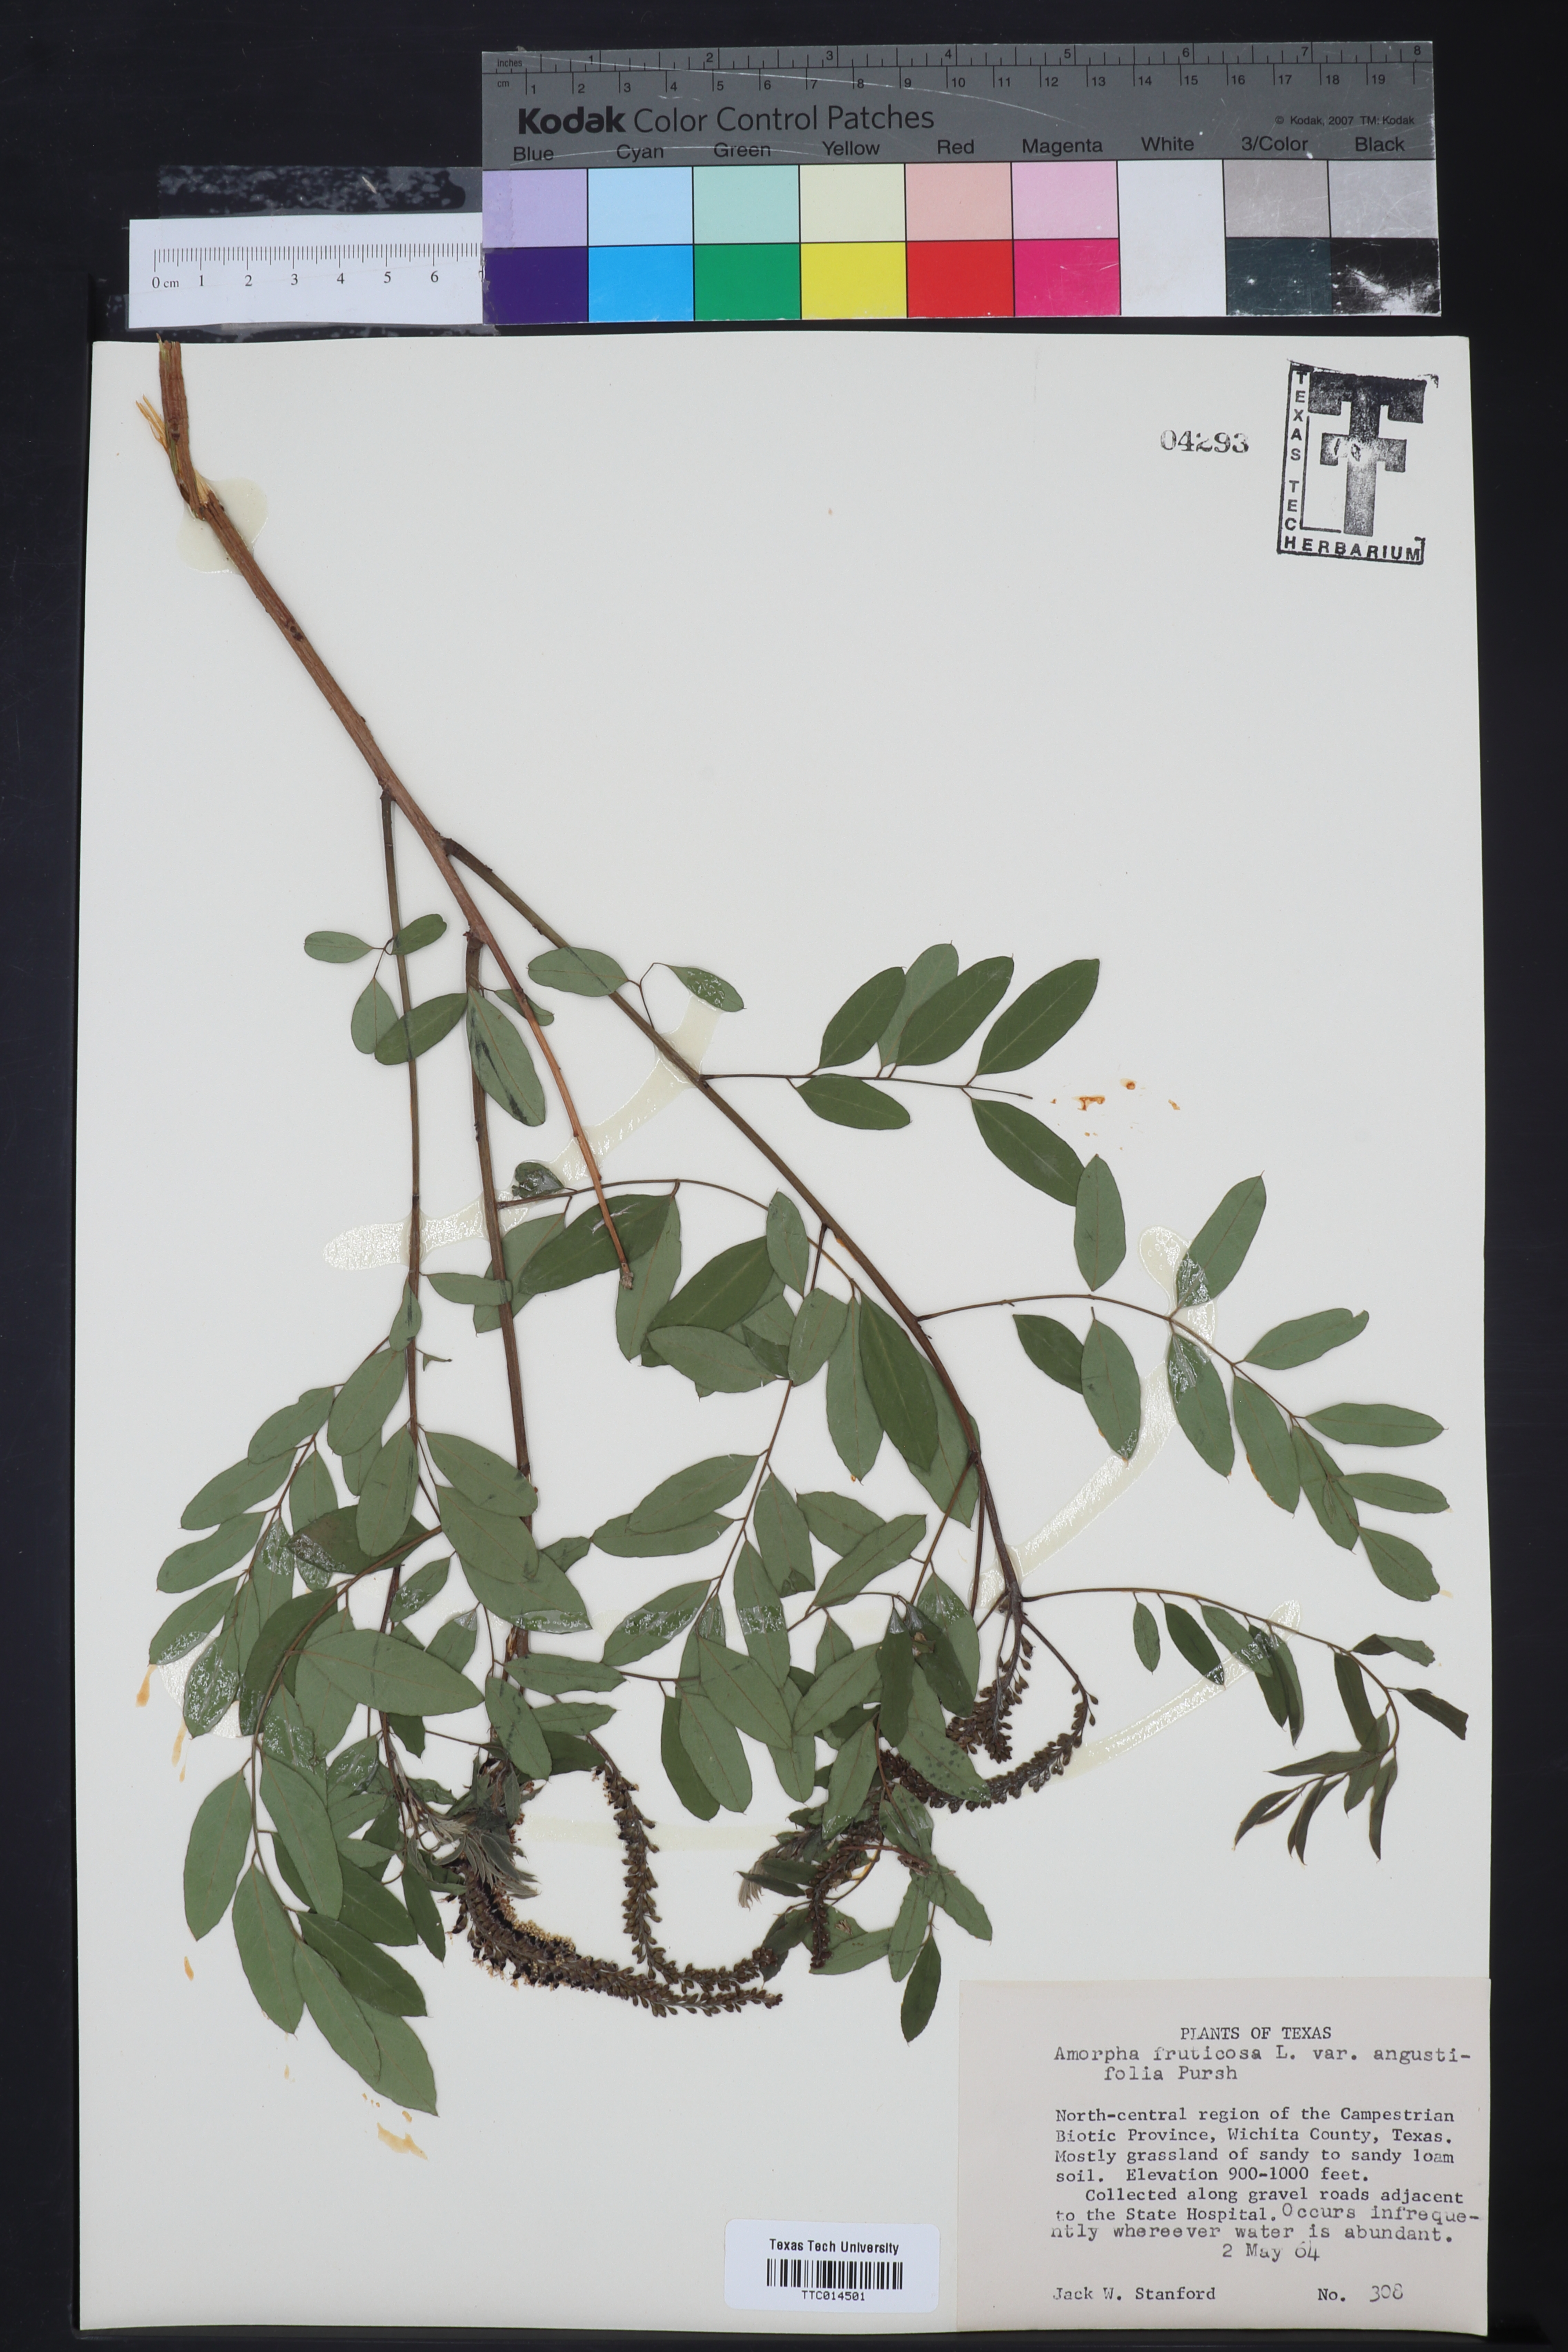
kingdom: Plantae
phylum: Tracheophyta
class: Magnoliopsida
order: Fabales
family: Fabaceae
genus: Amorpha
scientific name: Amorpha fruticosa
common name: False indigo
